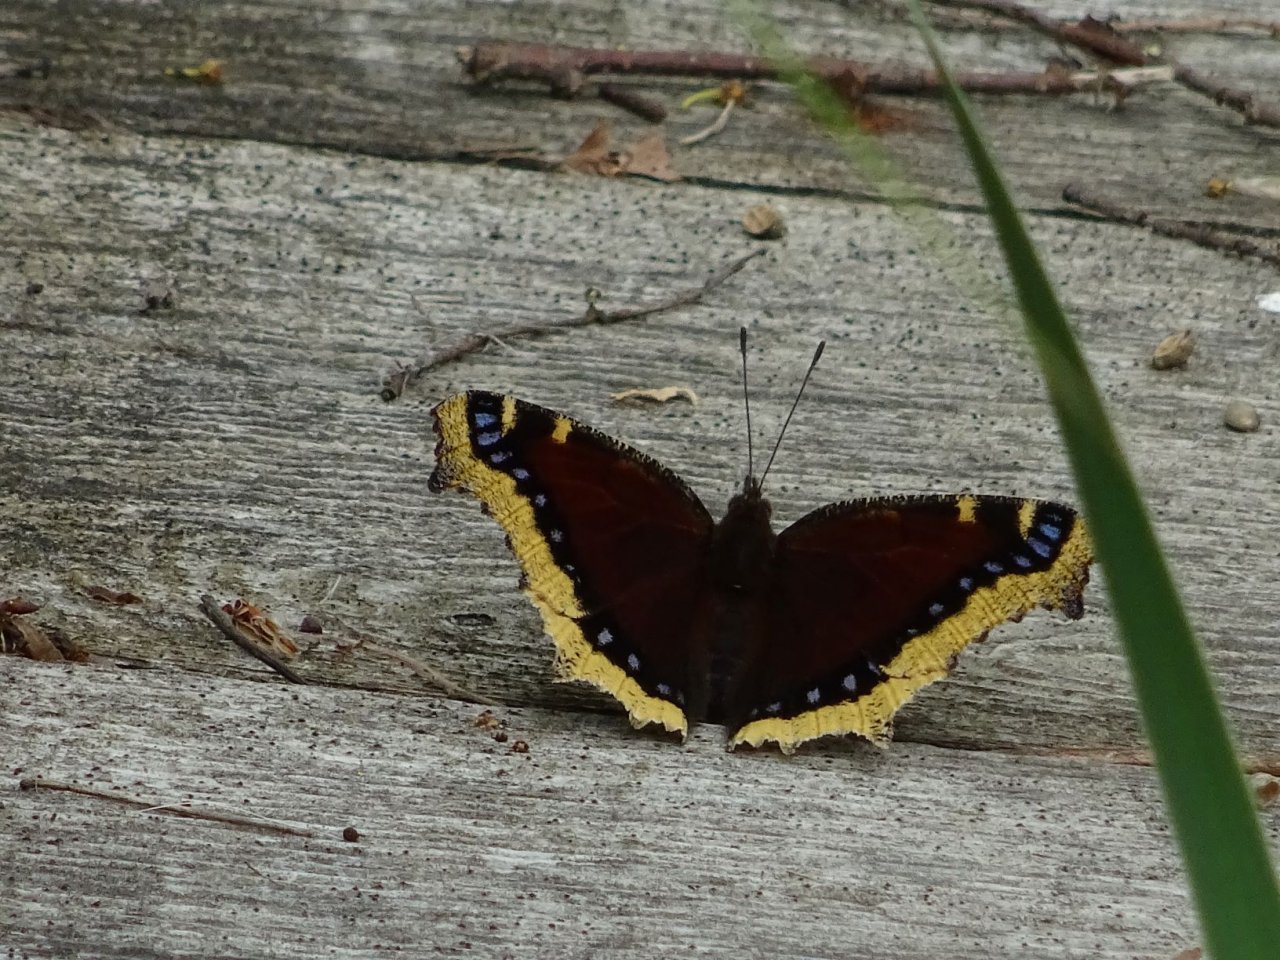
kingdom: Animalia
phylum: Arthropoda
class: Insecta
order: Lepidoptera
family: Nymphalidae
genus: Nymphalis
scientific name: Nymphalis antiopa
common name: Mourning Cloak
